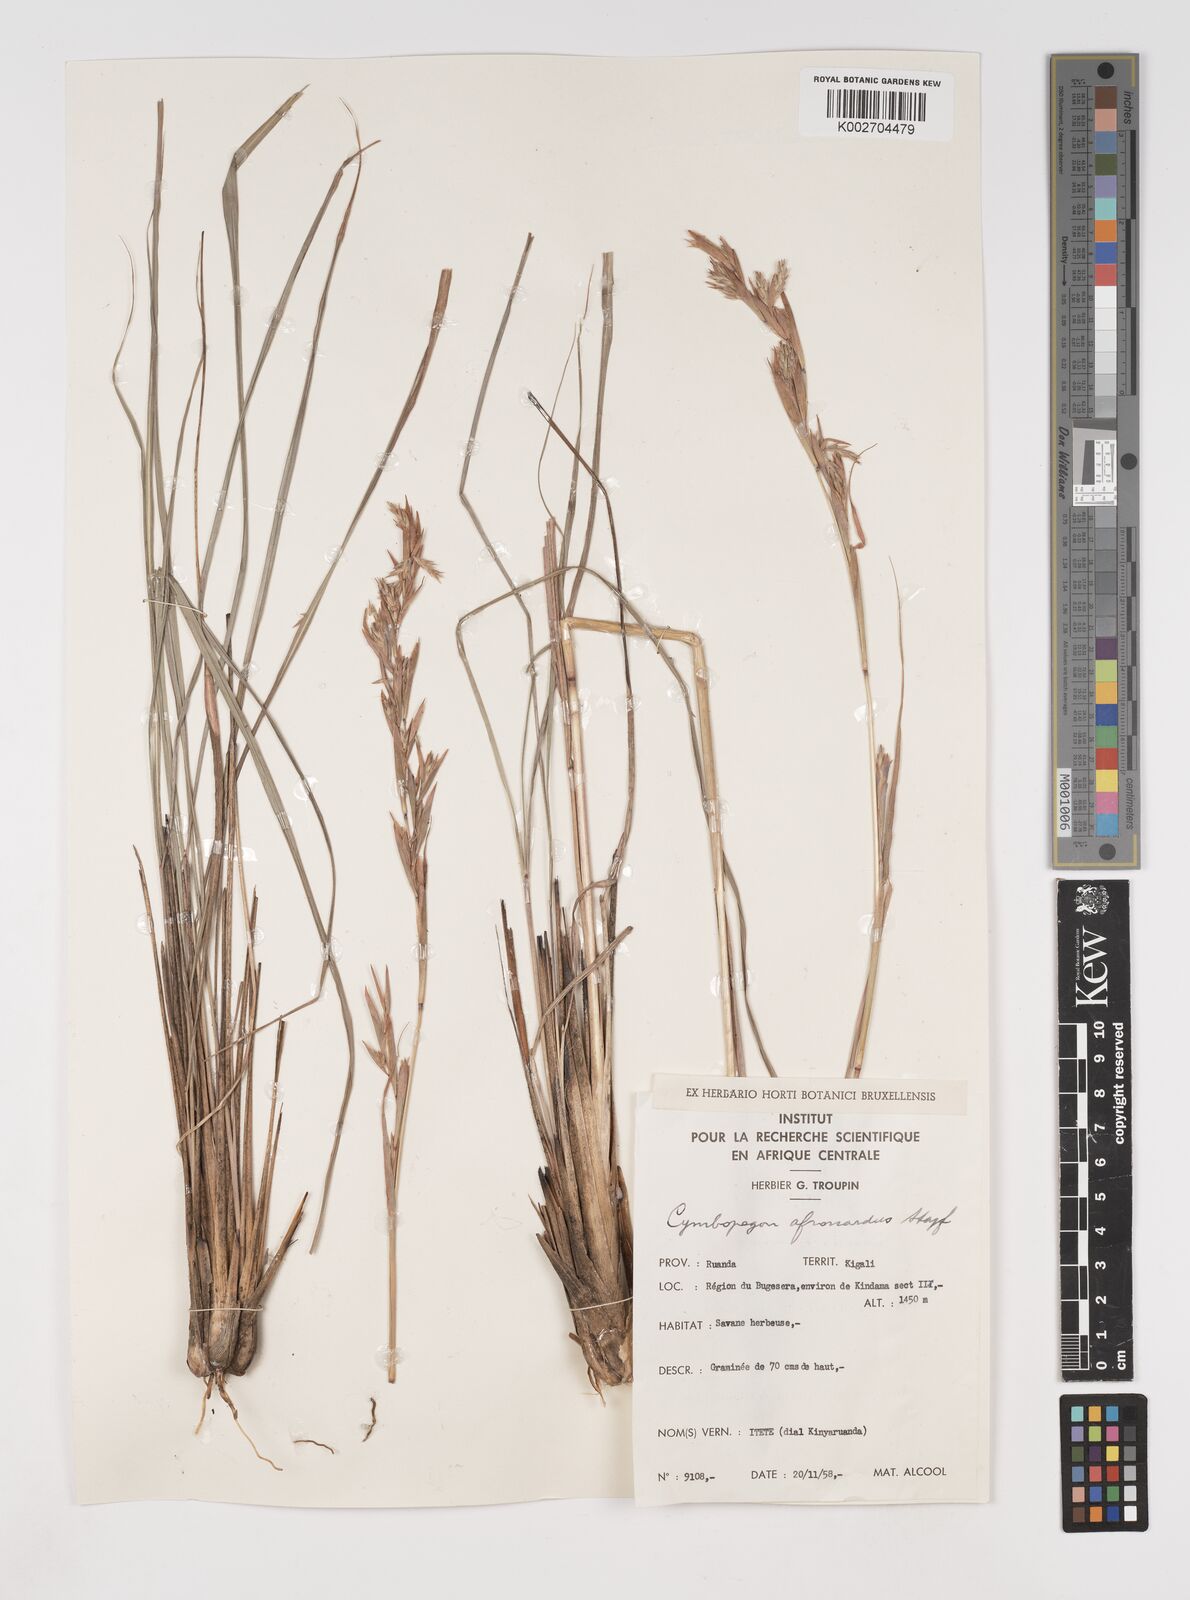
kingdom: Plantae
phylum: Tracheophyta
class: Liliopsida
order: Poales
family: Poaceae
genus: Cymbopogon
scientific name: Cymbopogon nardus
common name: Giant turpentine grass
